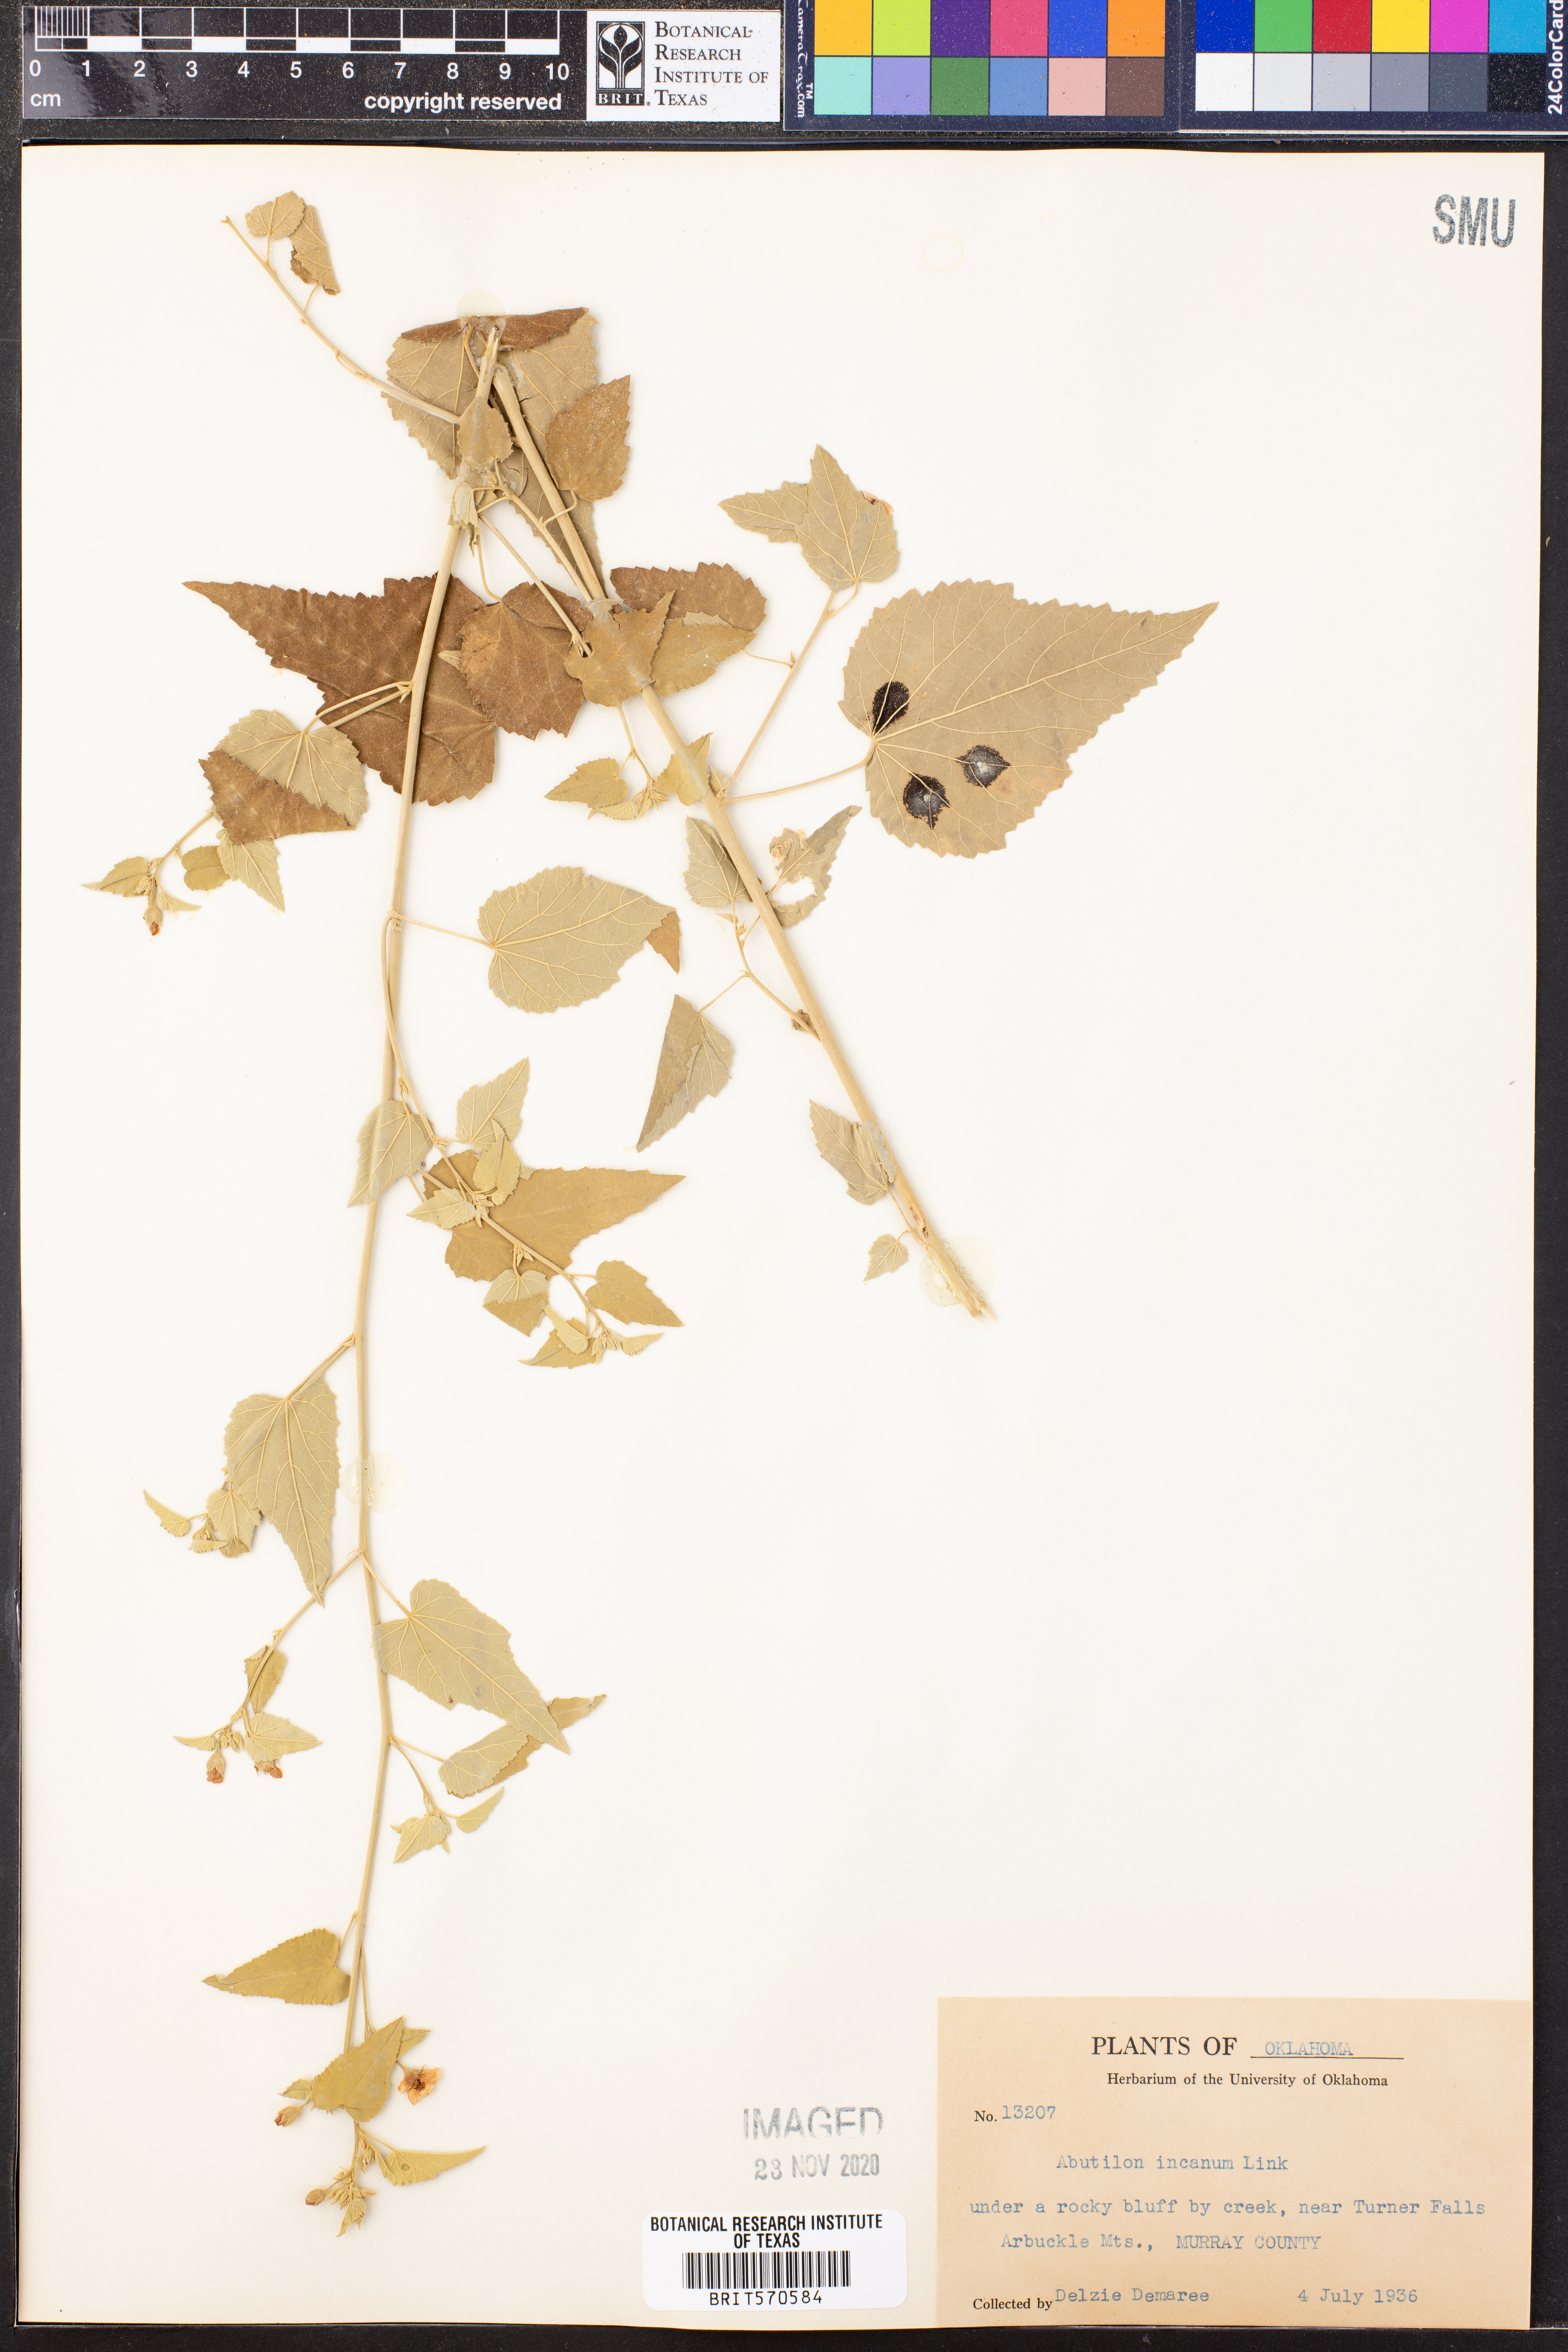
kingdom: Plantae
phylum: Tracheophyta
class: Magnoliopsida
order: Malvales
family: Malvaceae
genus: Abutilon
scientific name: Abutilon incanum
